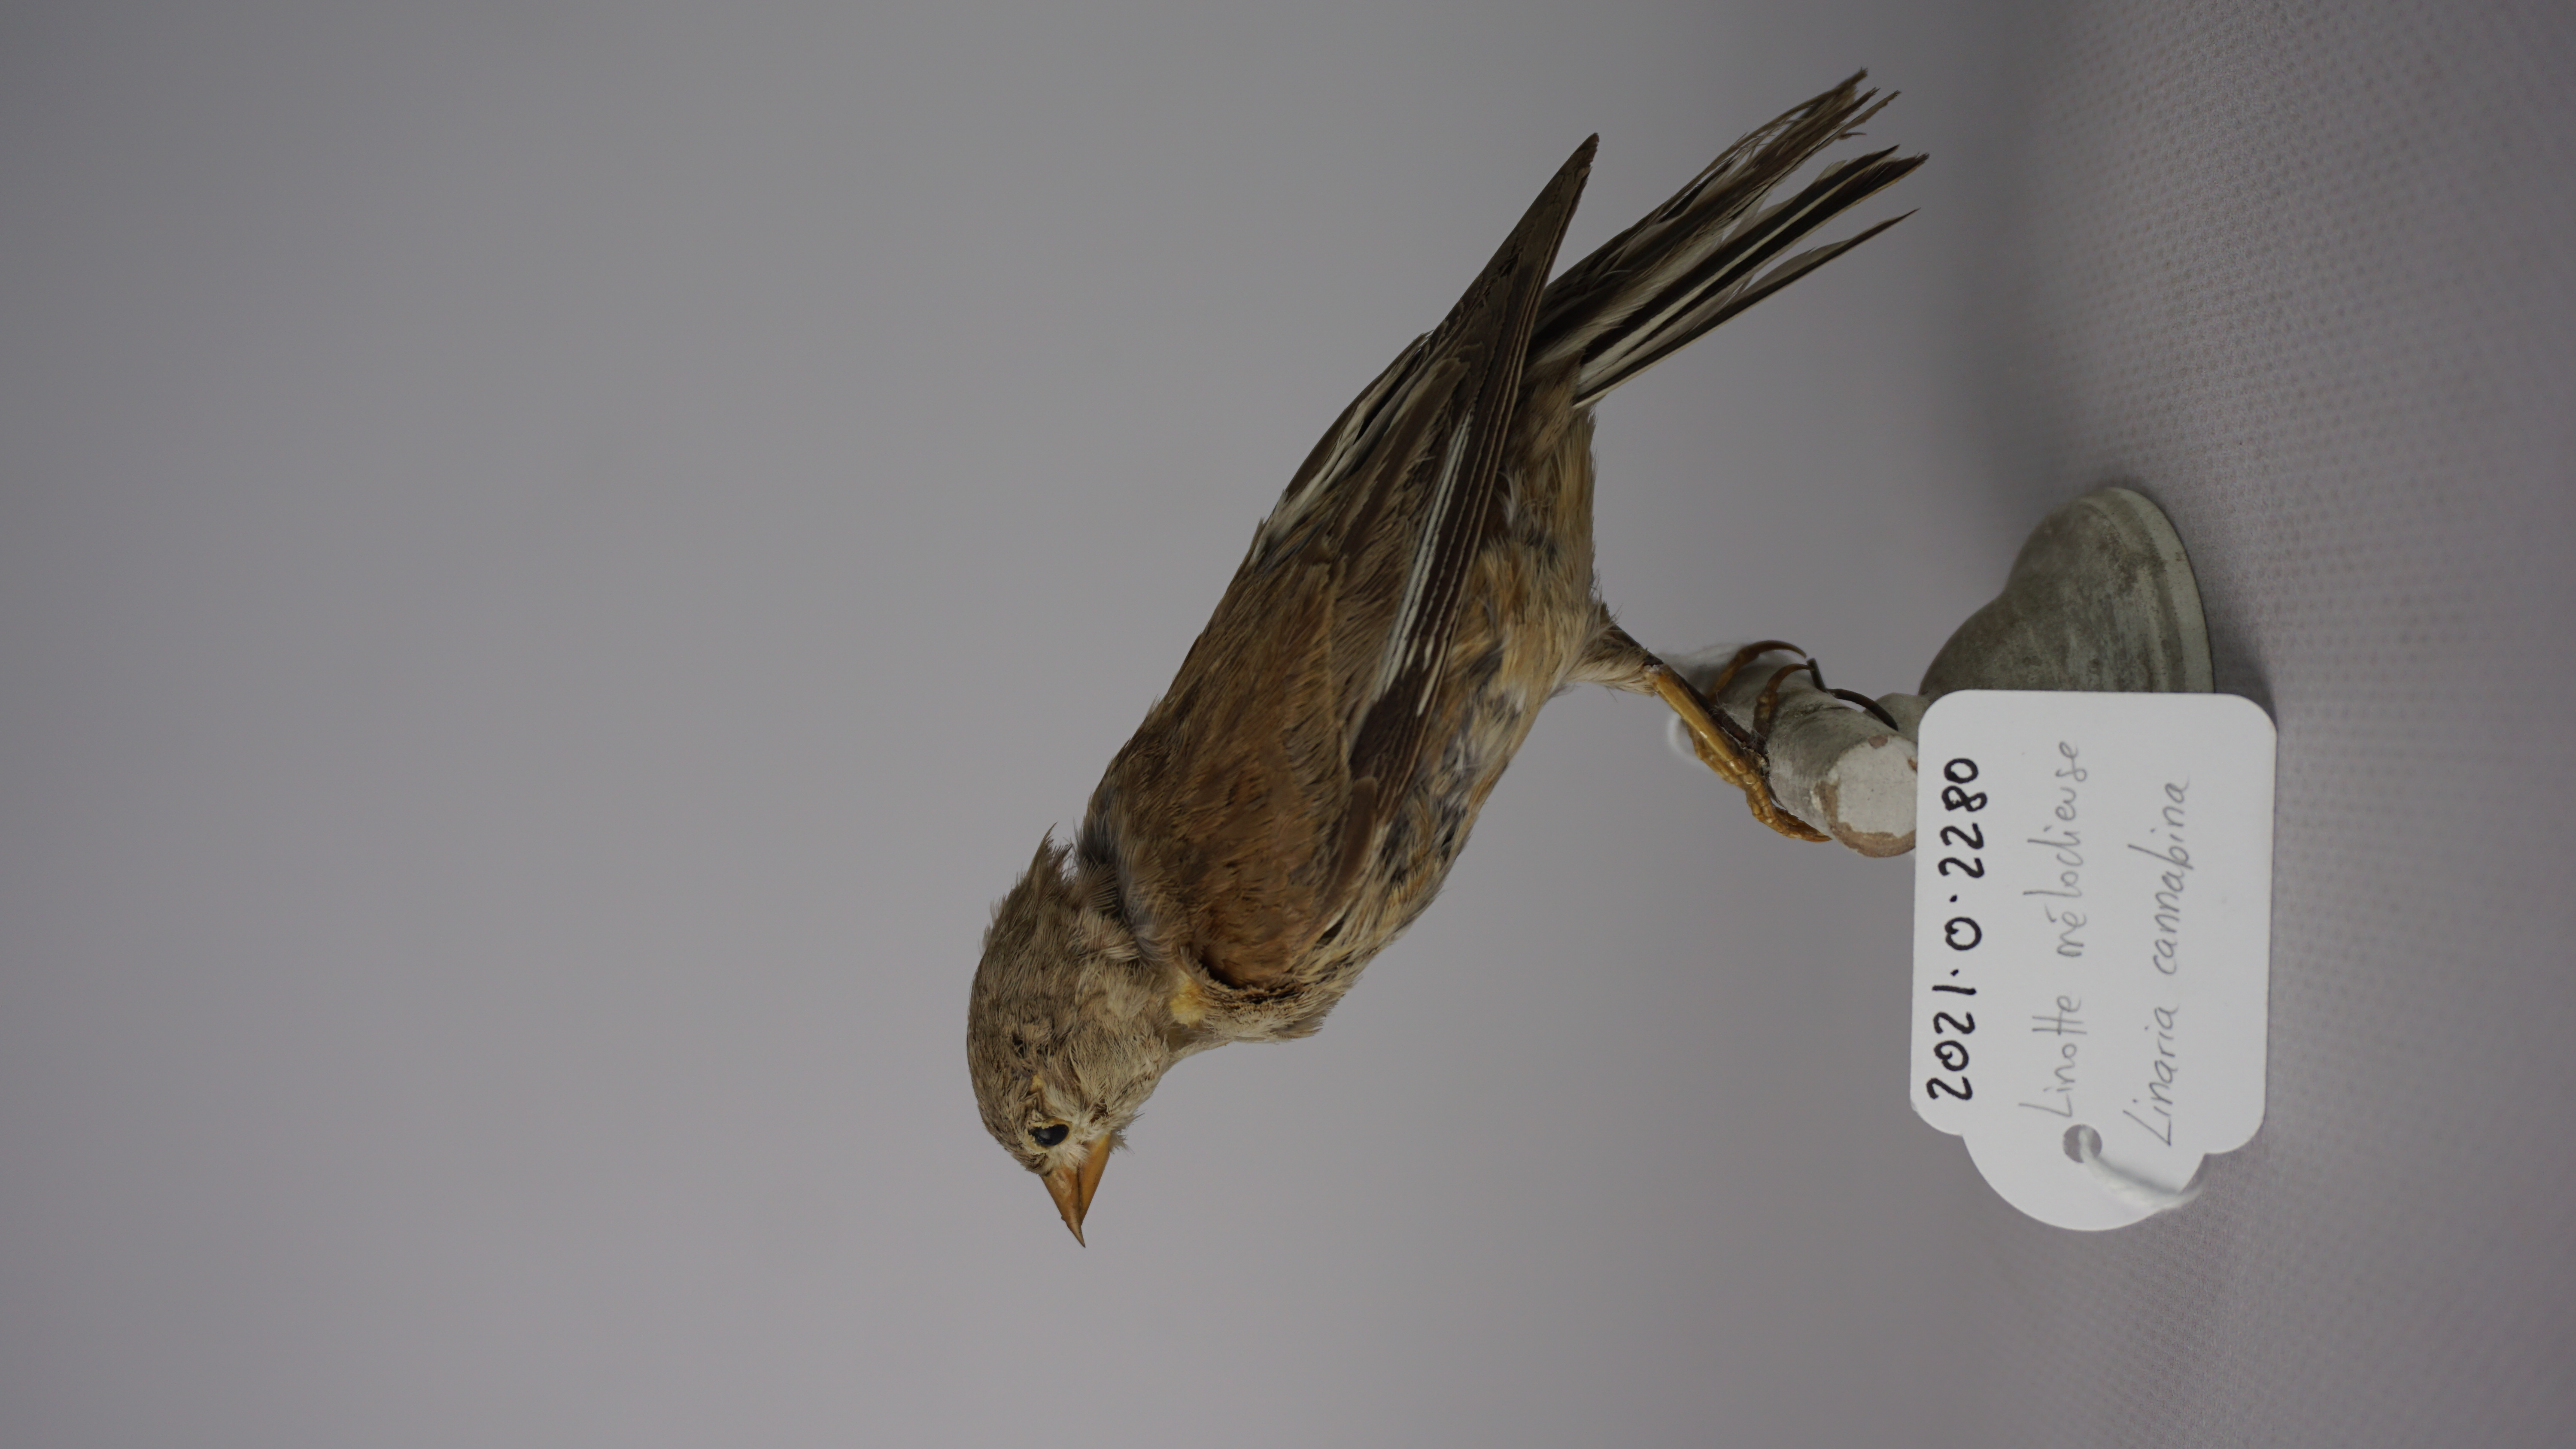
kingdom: Animalia
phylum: Chordata
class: Aves
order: Passeriformes
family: Fringillidae
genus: Linaria
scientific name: Linaria cannabina
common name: Common linnet
